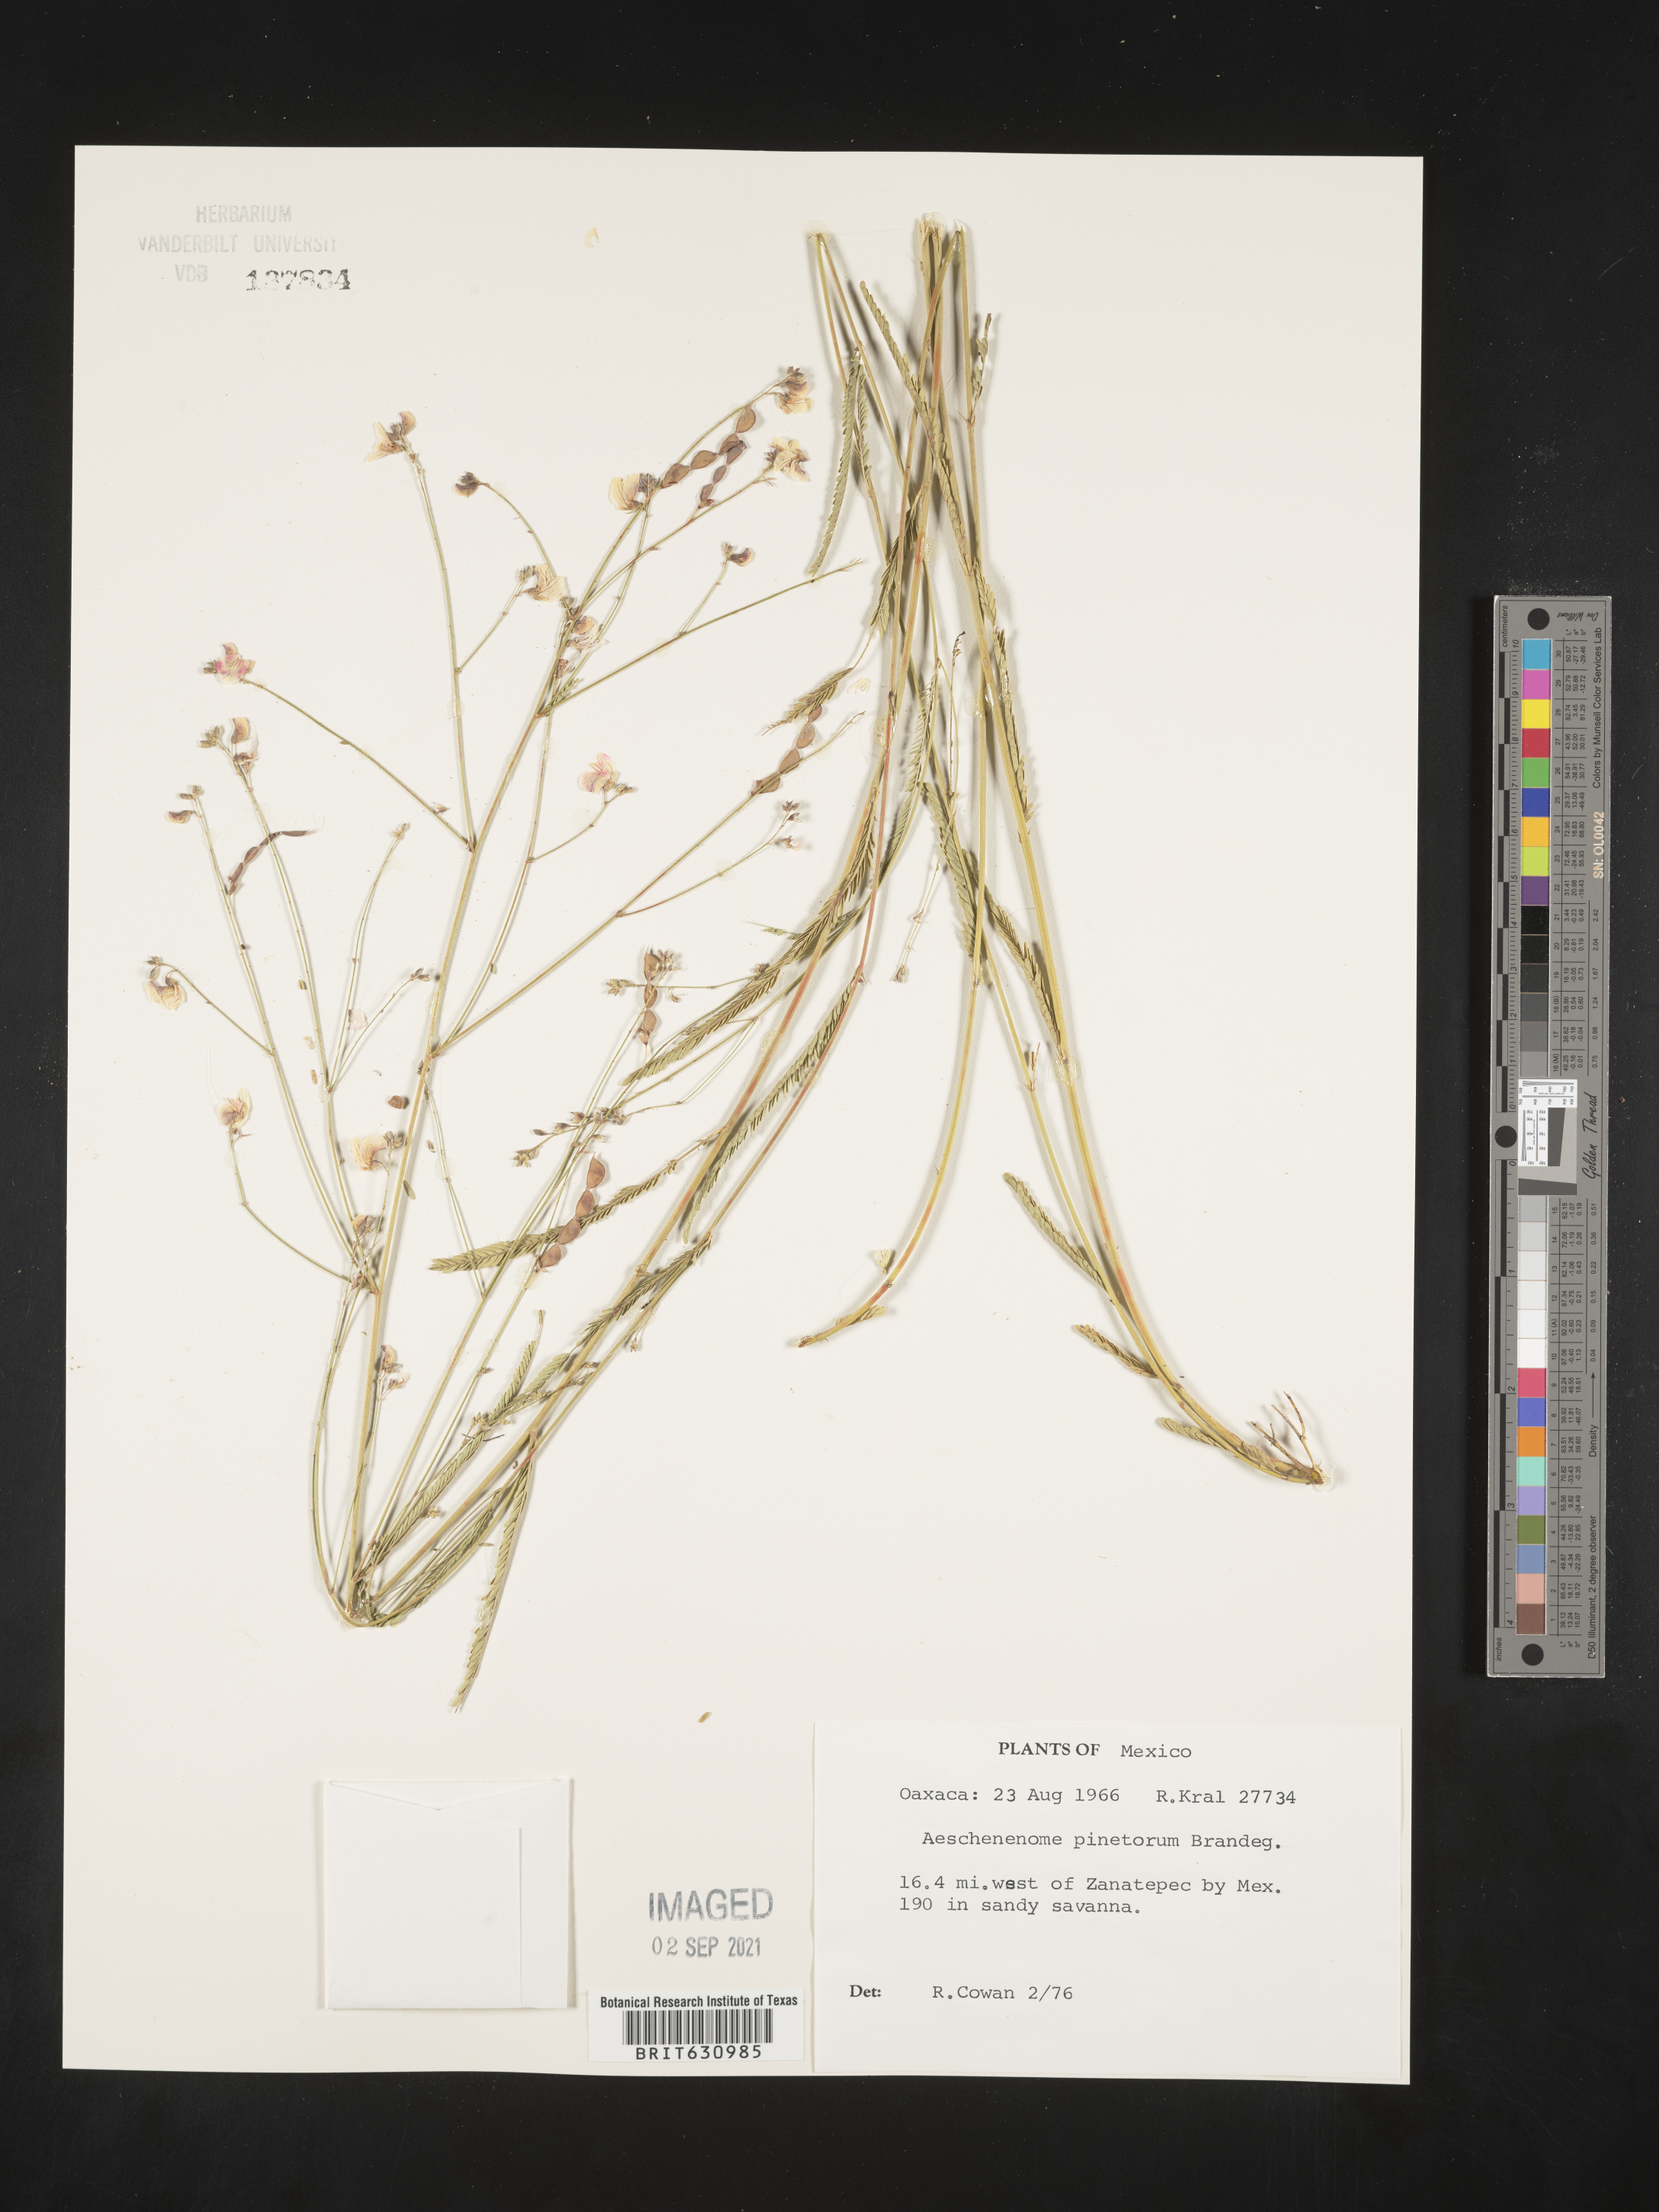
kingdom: Plantae
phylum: Tracheophyta
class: Magnoliopsida
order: Fabales
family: Fabaceae
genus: Aeschynomene
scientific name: Aeschynomene
